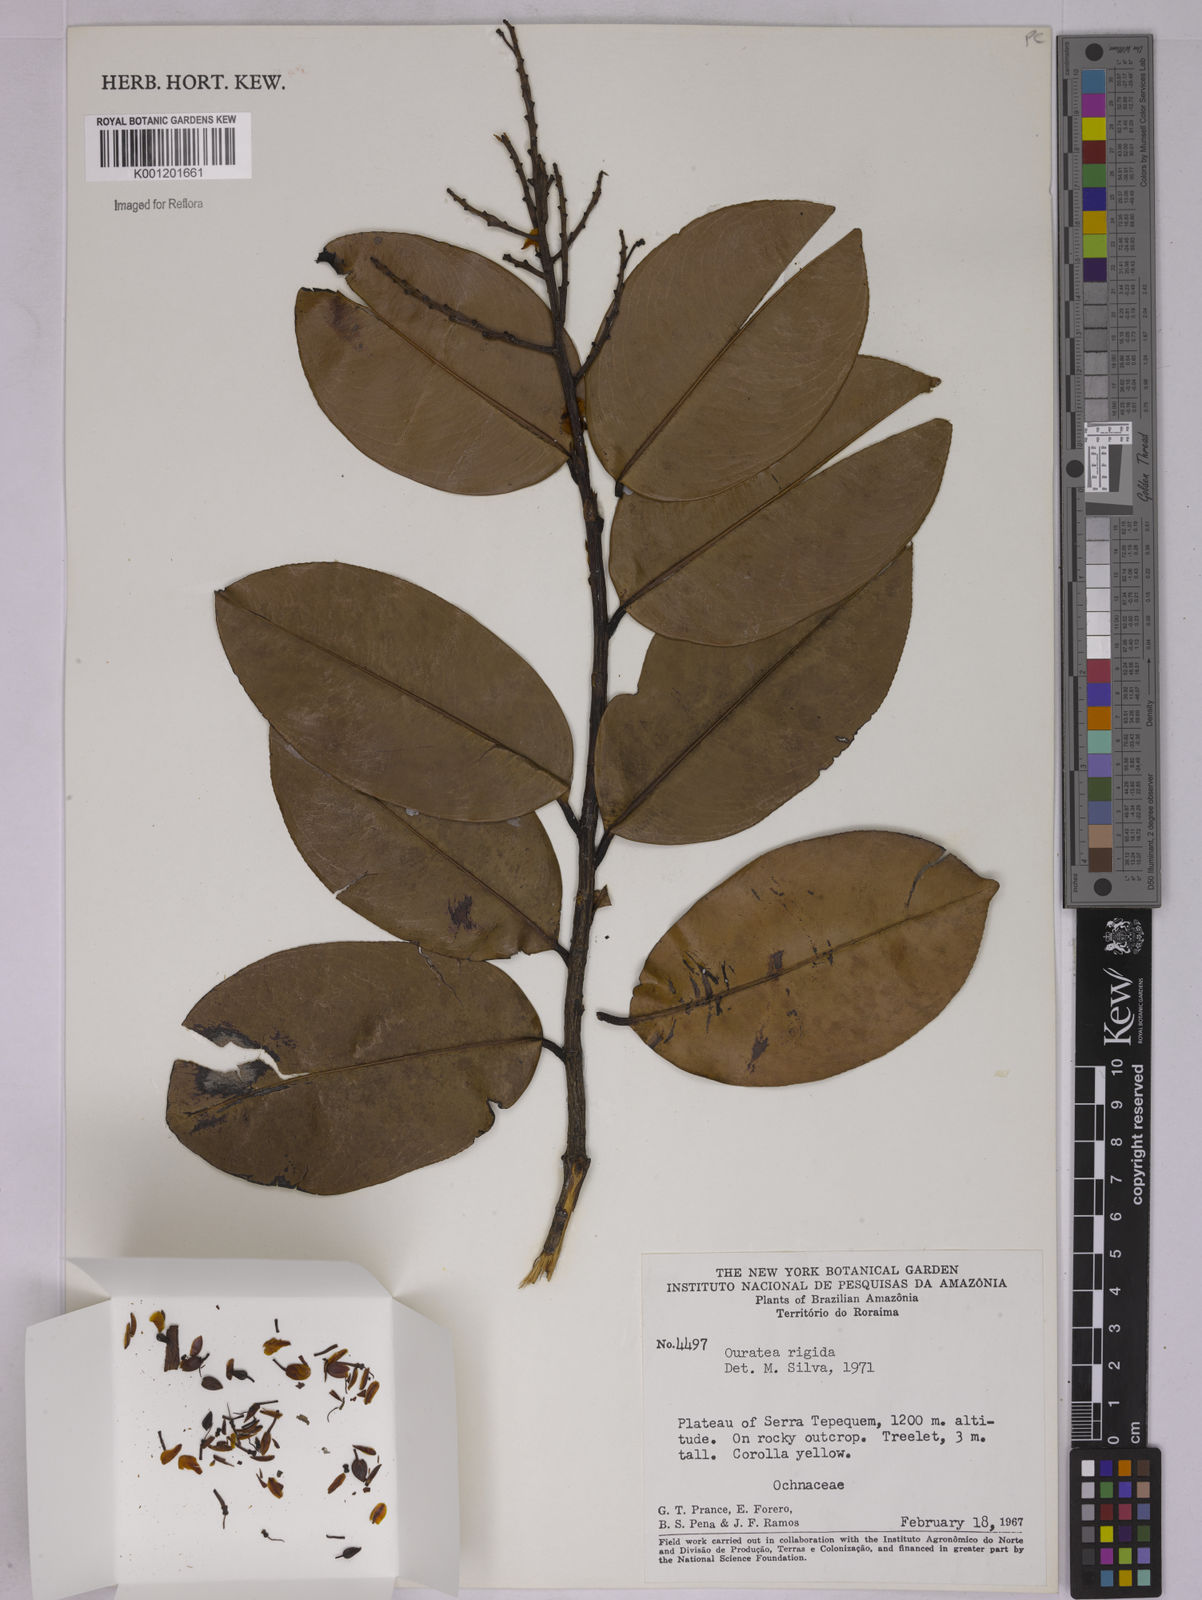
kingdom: Plantae
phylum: Tracheophyta
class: Magnoliopsida
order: Malpighiales
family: Ochnaceae
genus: Ouratea
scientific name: Ouratea rigida
